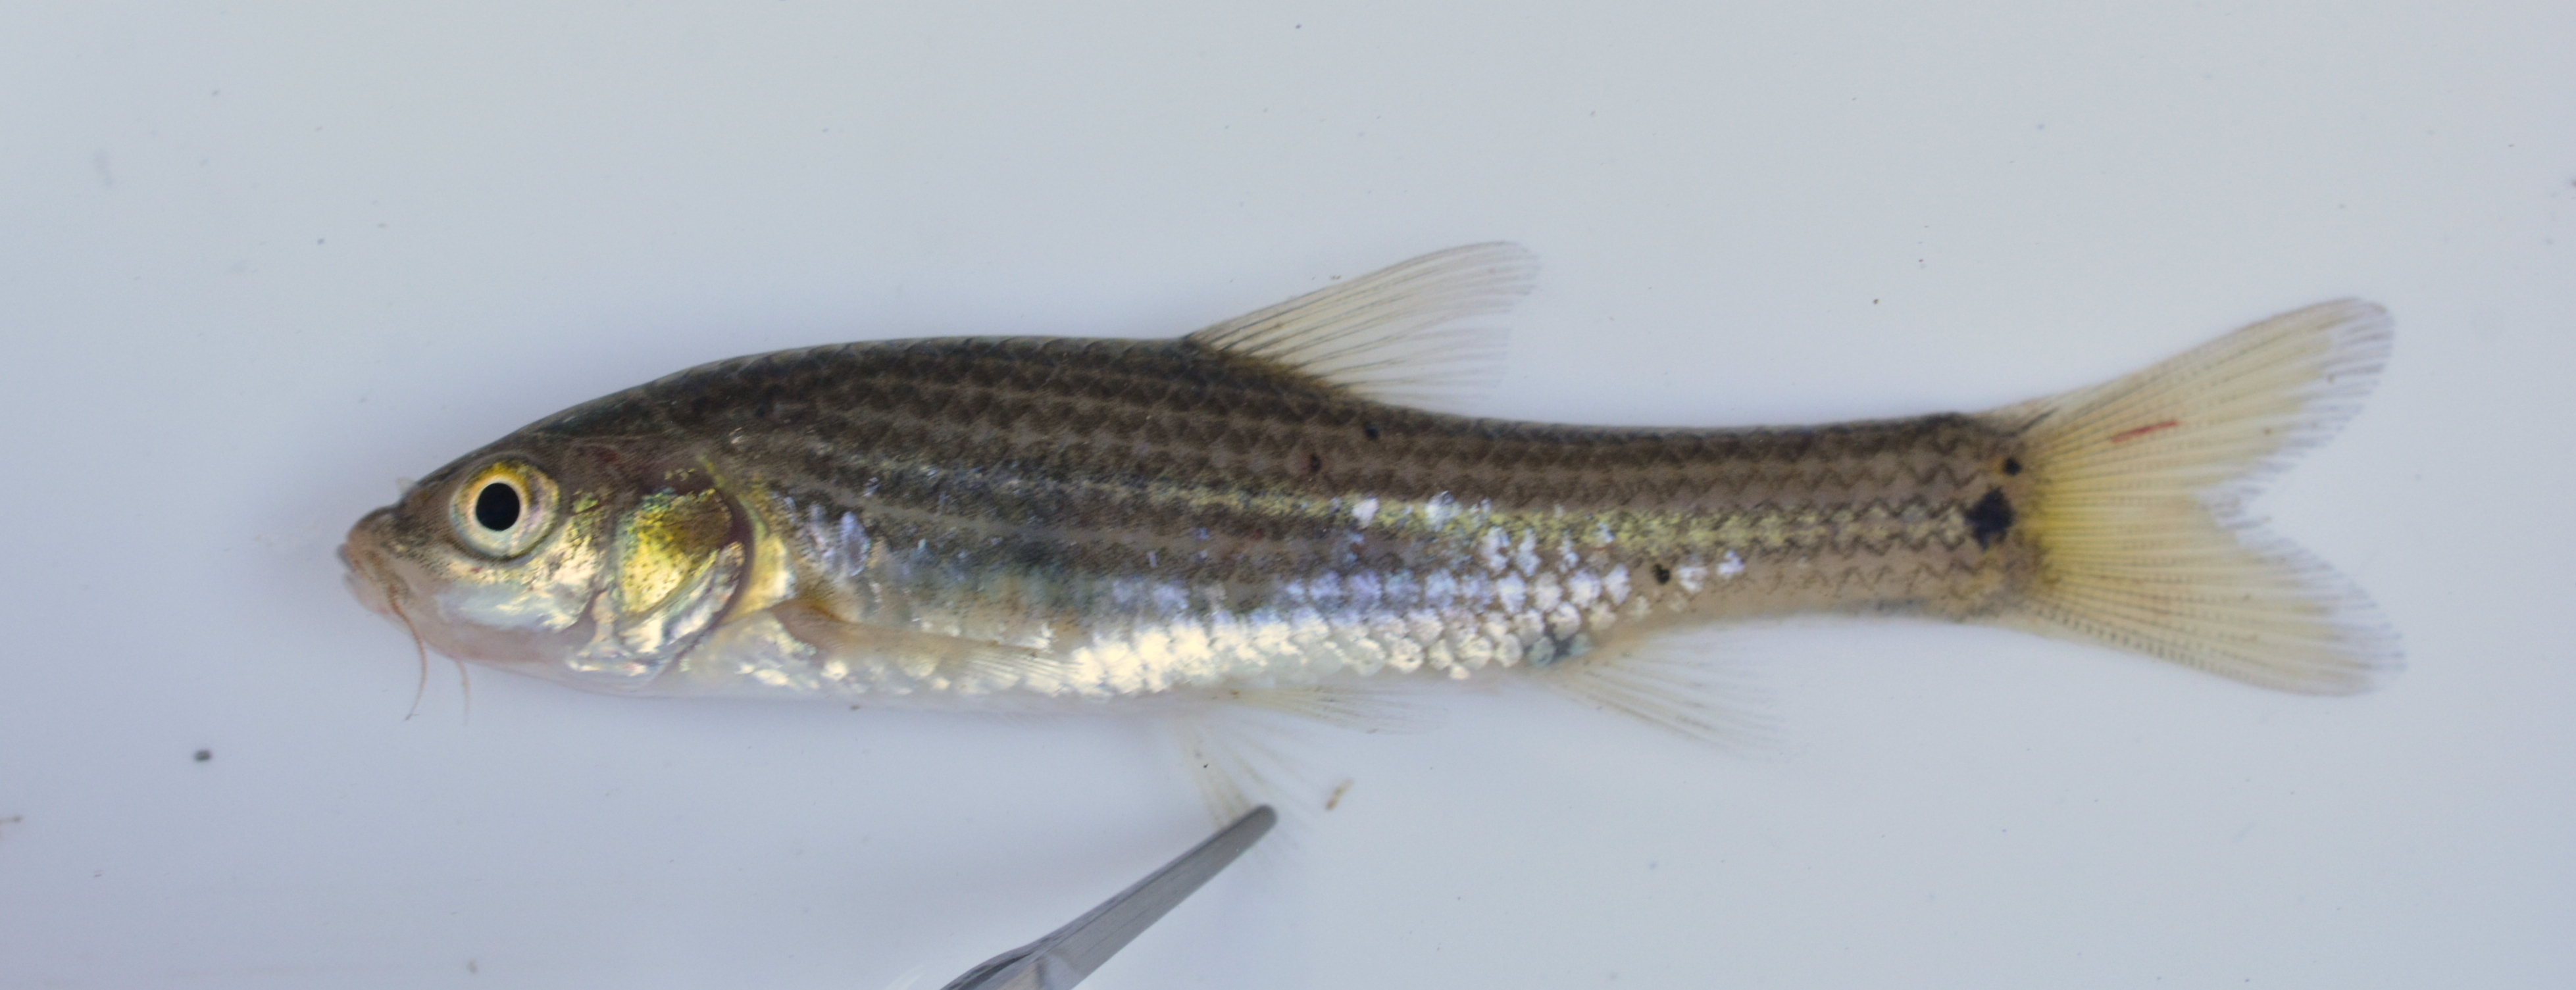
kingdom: Animalia
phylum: Chordata
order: Cypriniformes
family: Cyprinidae
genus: Enteromius
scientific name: Enteromius mocoensis
